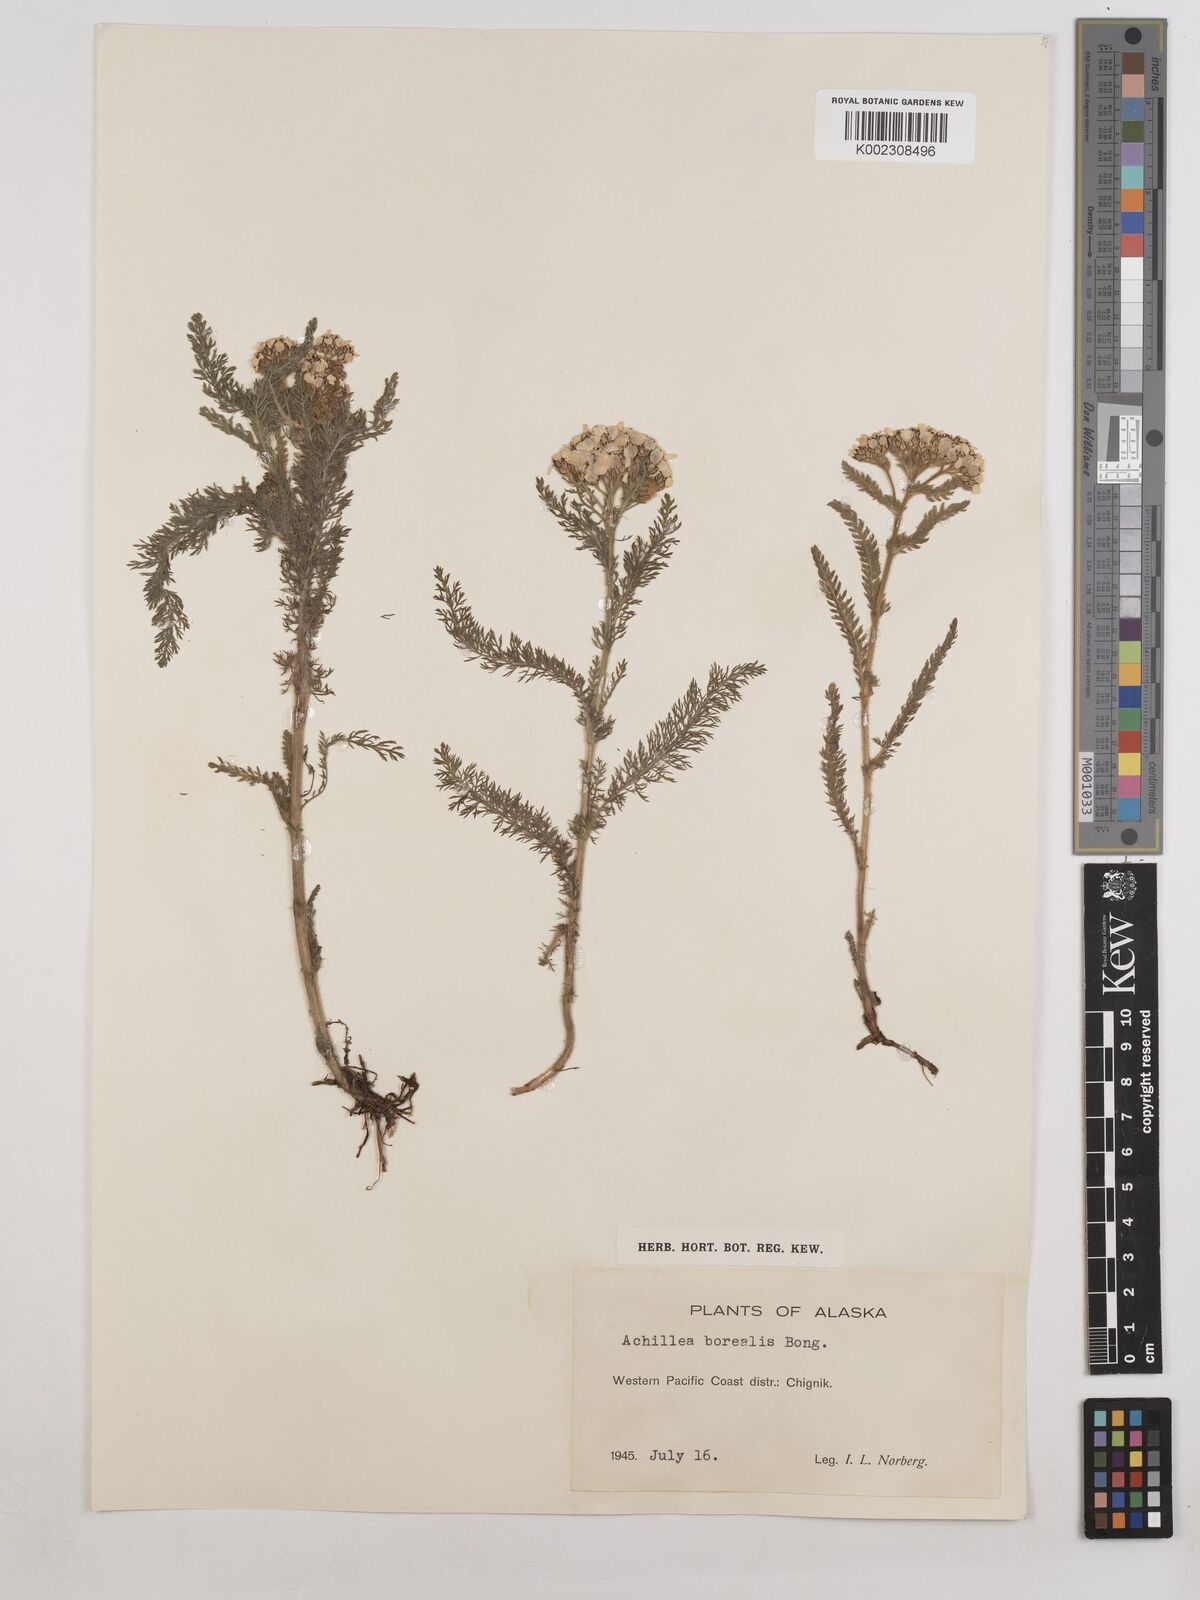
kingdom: Plantae
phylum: Tracheophyta
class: Magnoliopsida
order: Asterales
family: Asteraceae
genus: Achillea
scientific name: Achillea millefolium
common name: Yarrow
